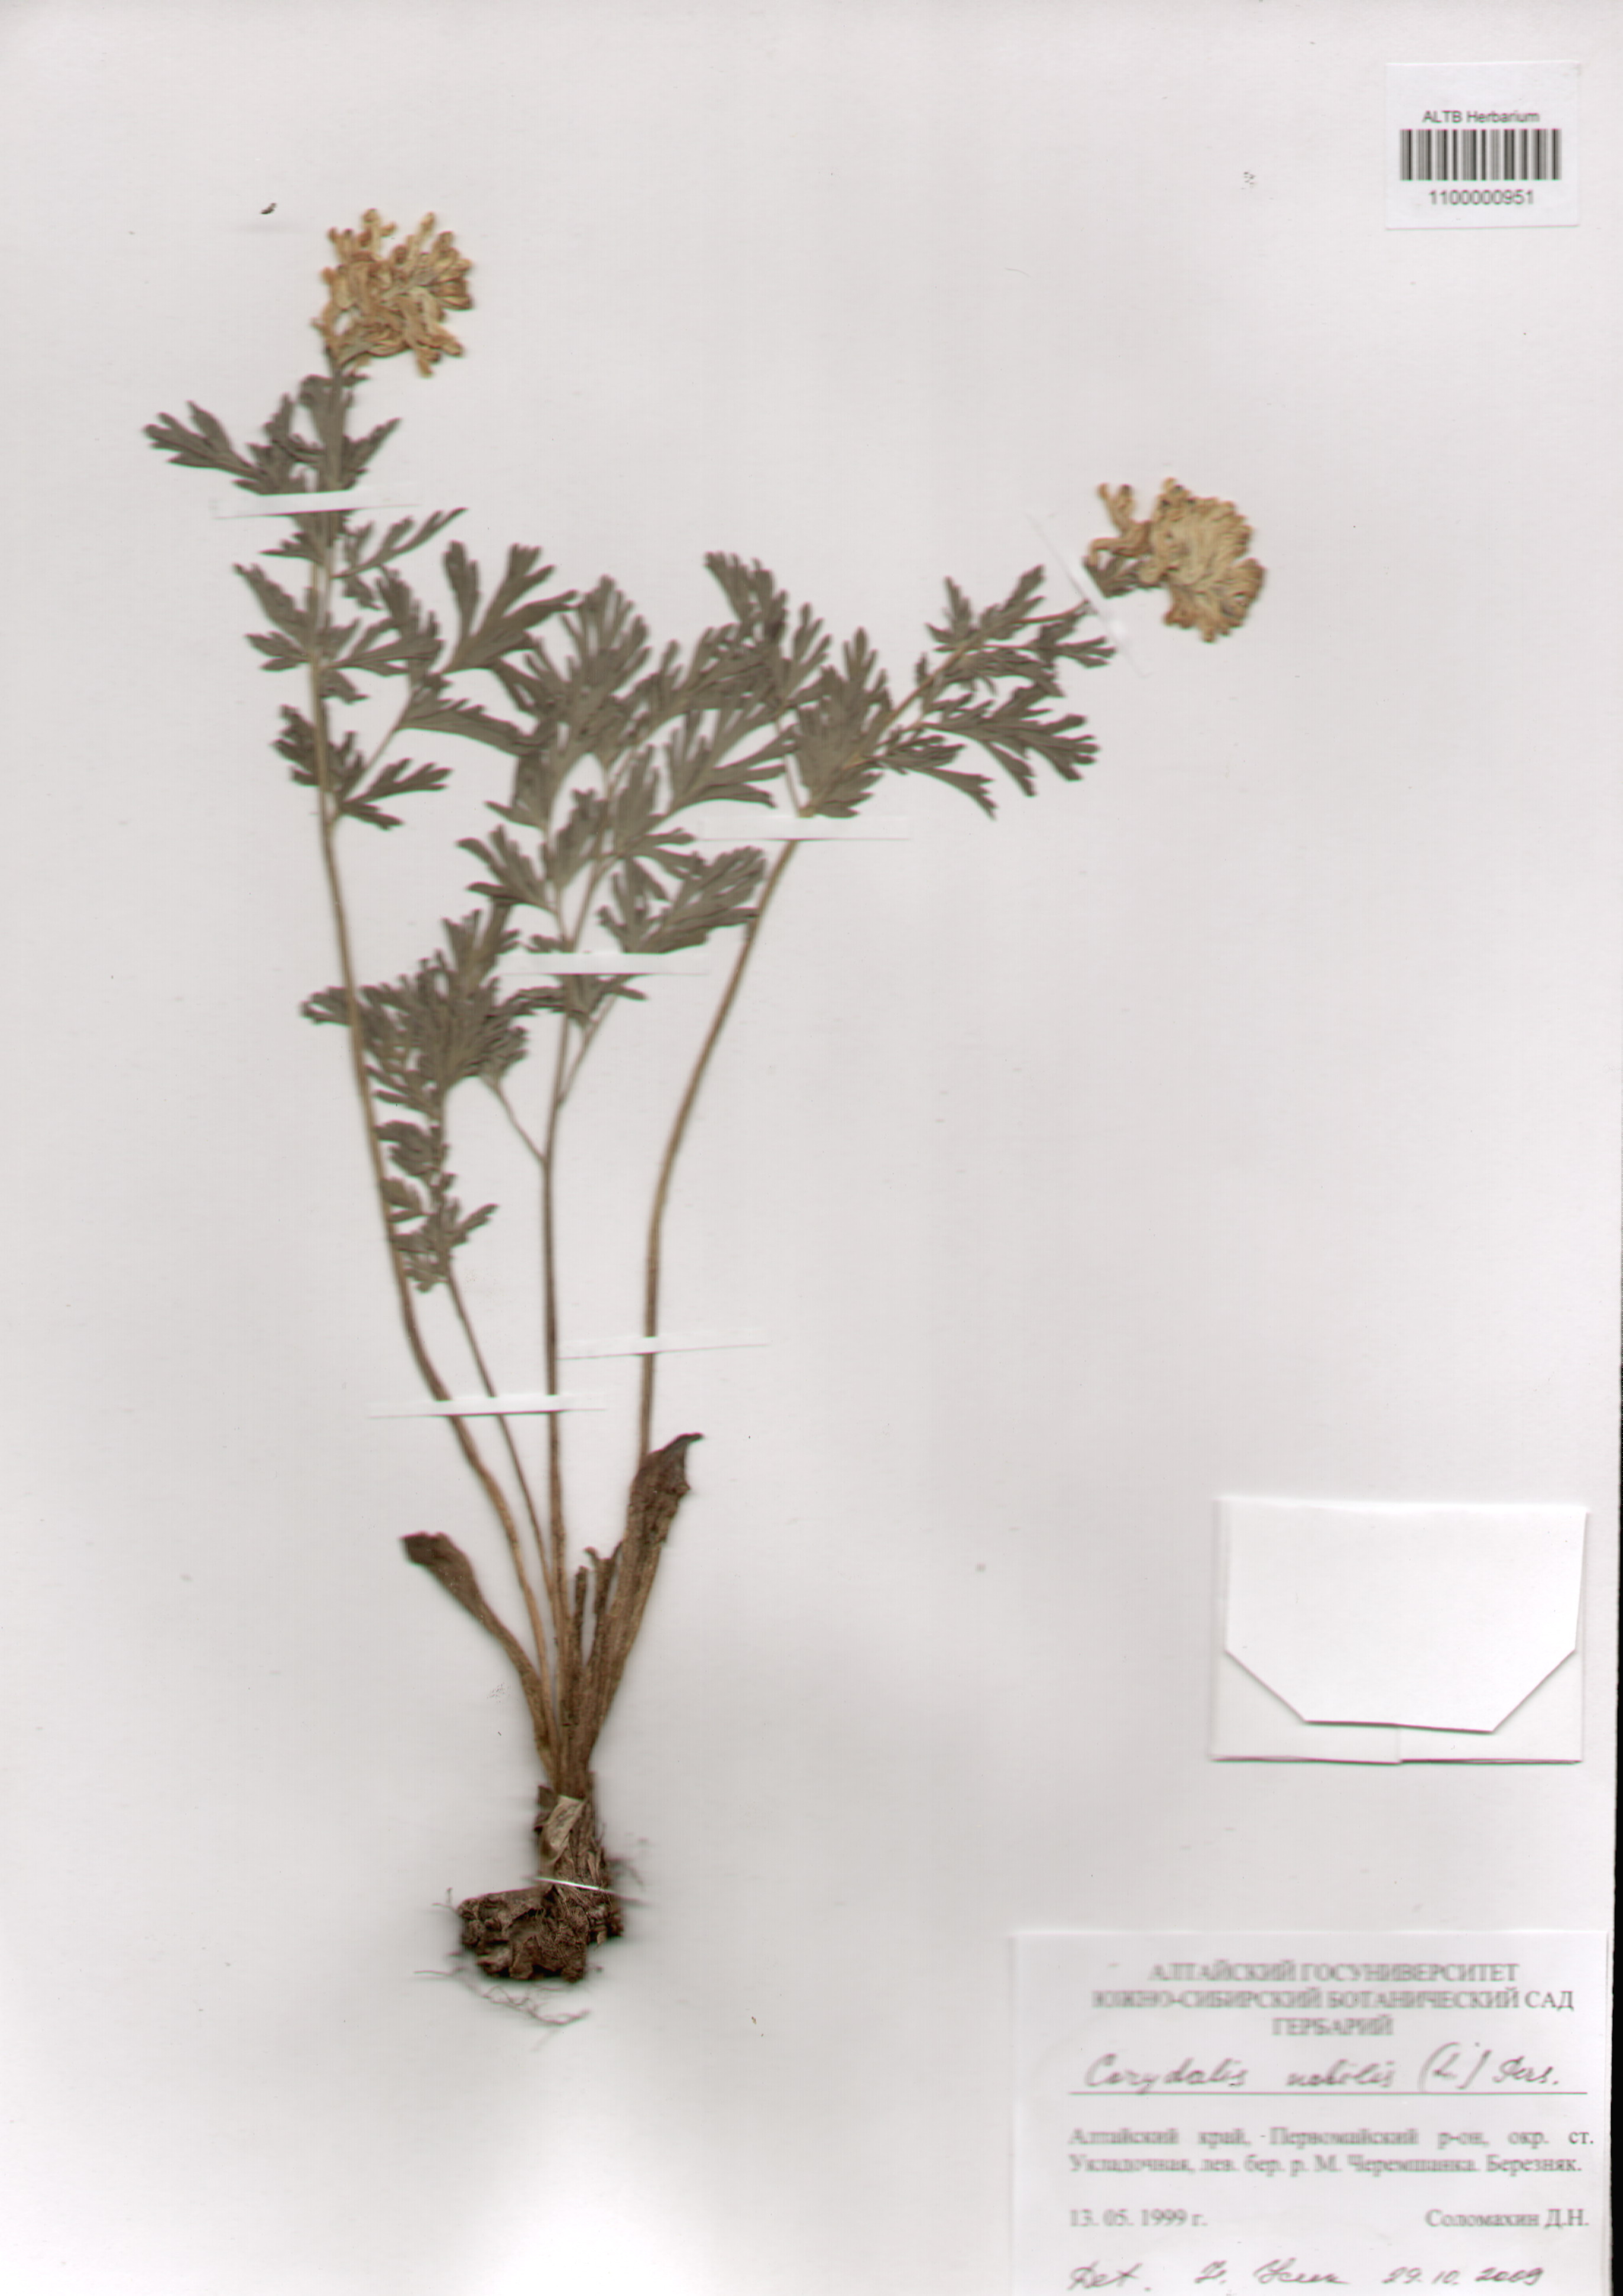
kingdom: Plantae
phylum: Tracheophyta
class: Magnoliopsida
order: Ranunculales
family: Papaveraceae
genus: Corydalis
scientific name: Corydalis nobilis
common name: Siberian corydalis
